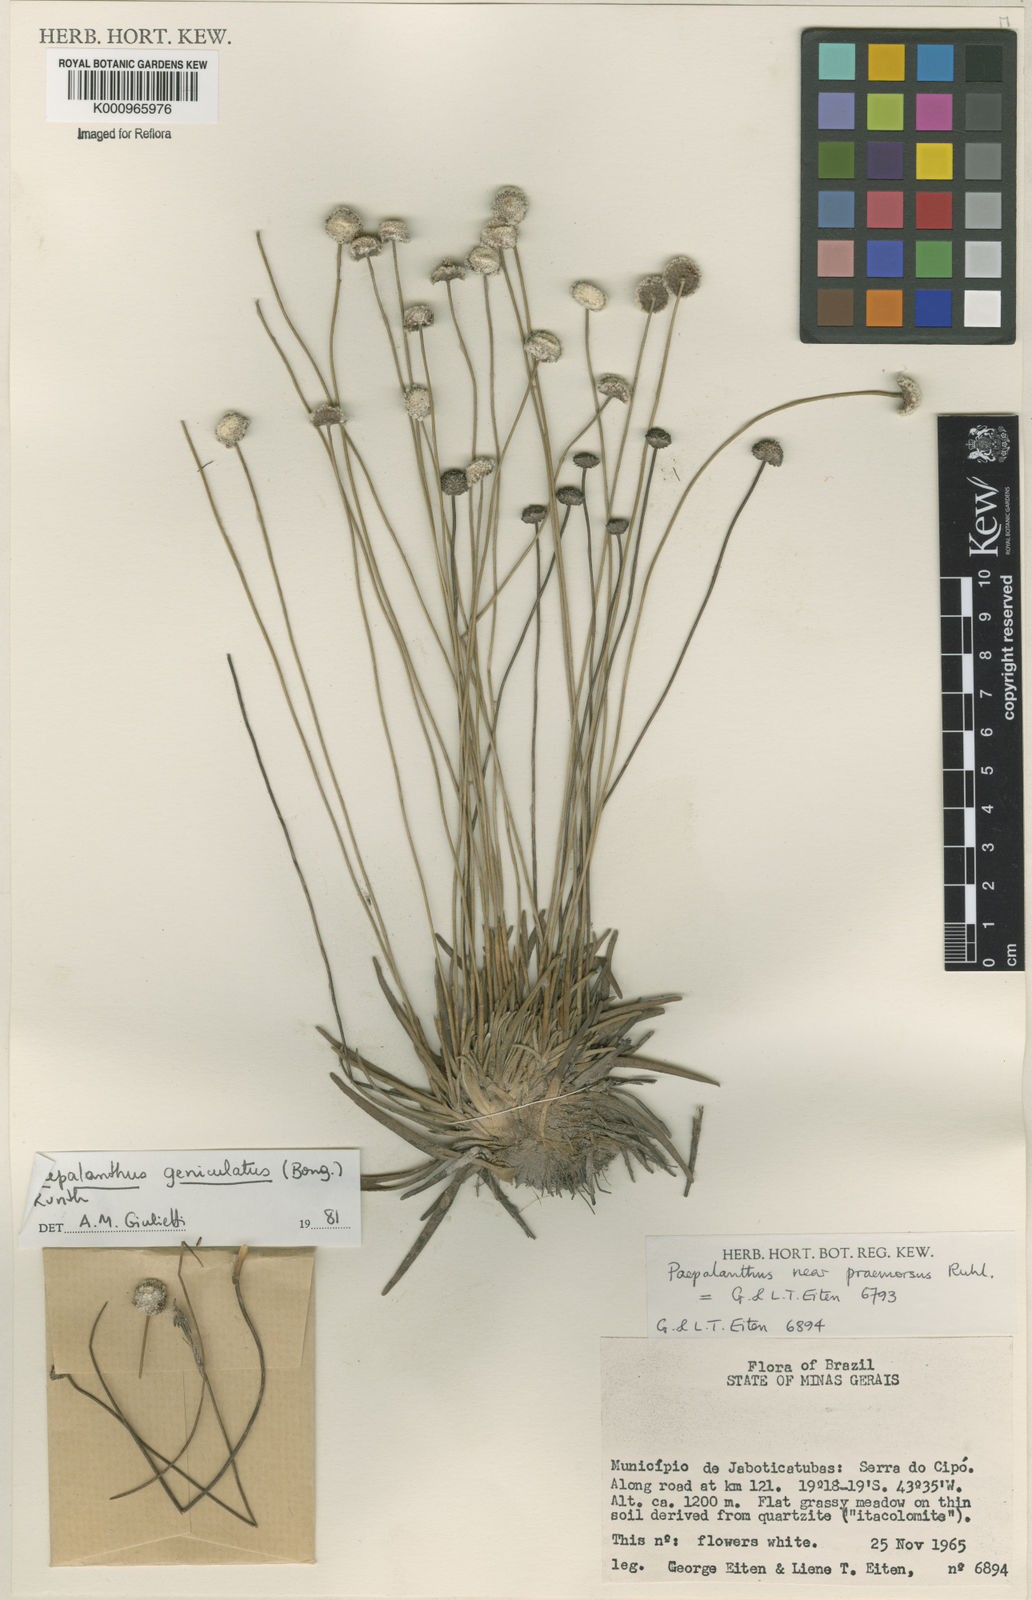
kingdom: Plantae
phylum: Tracheophyta
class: Liliopsida
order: Poales
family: Eriocaulaceae
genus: Paepalanthus
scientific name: Paepalanthus geniculatus
